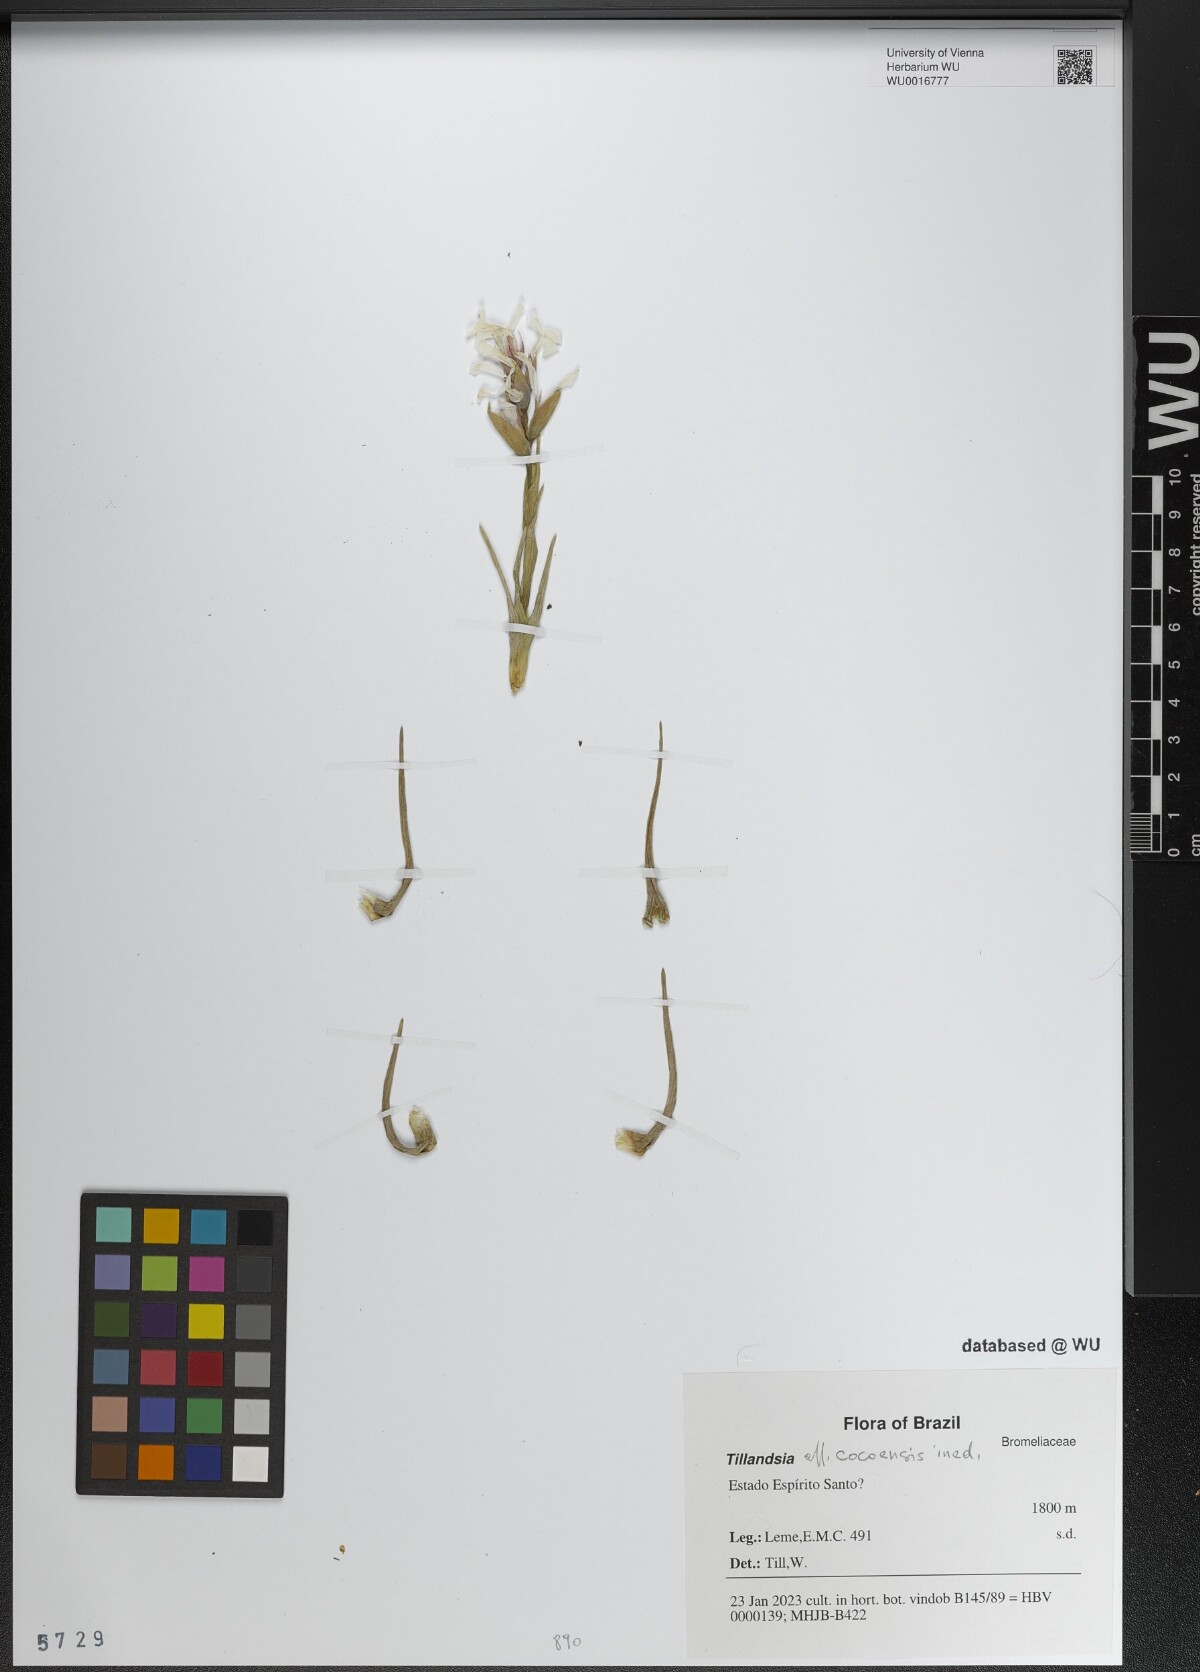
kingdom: Plantae
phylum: Tracheophyta
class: Liliopsida
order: Poales
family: Bromeliaceae
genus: Tillandsia
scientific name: Tillandsia
